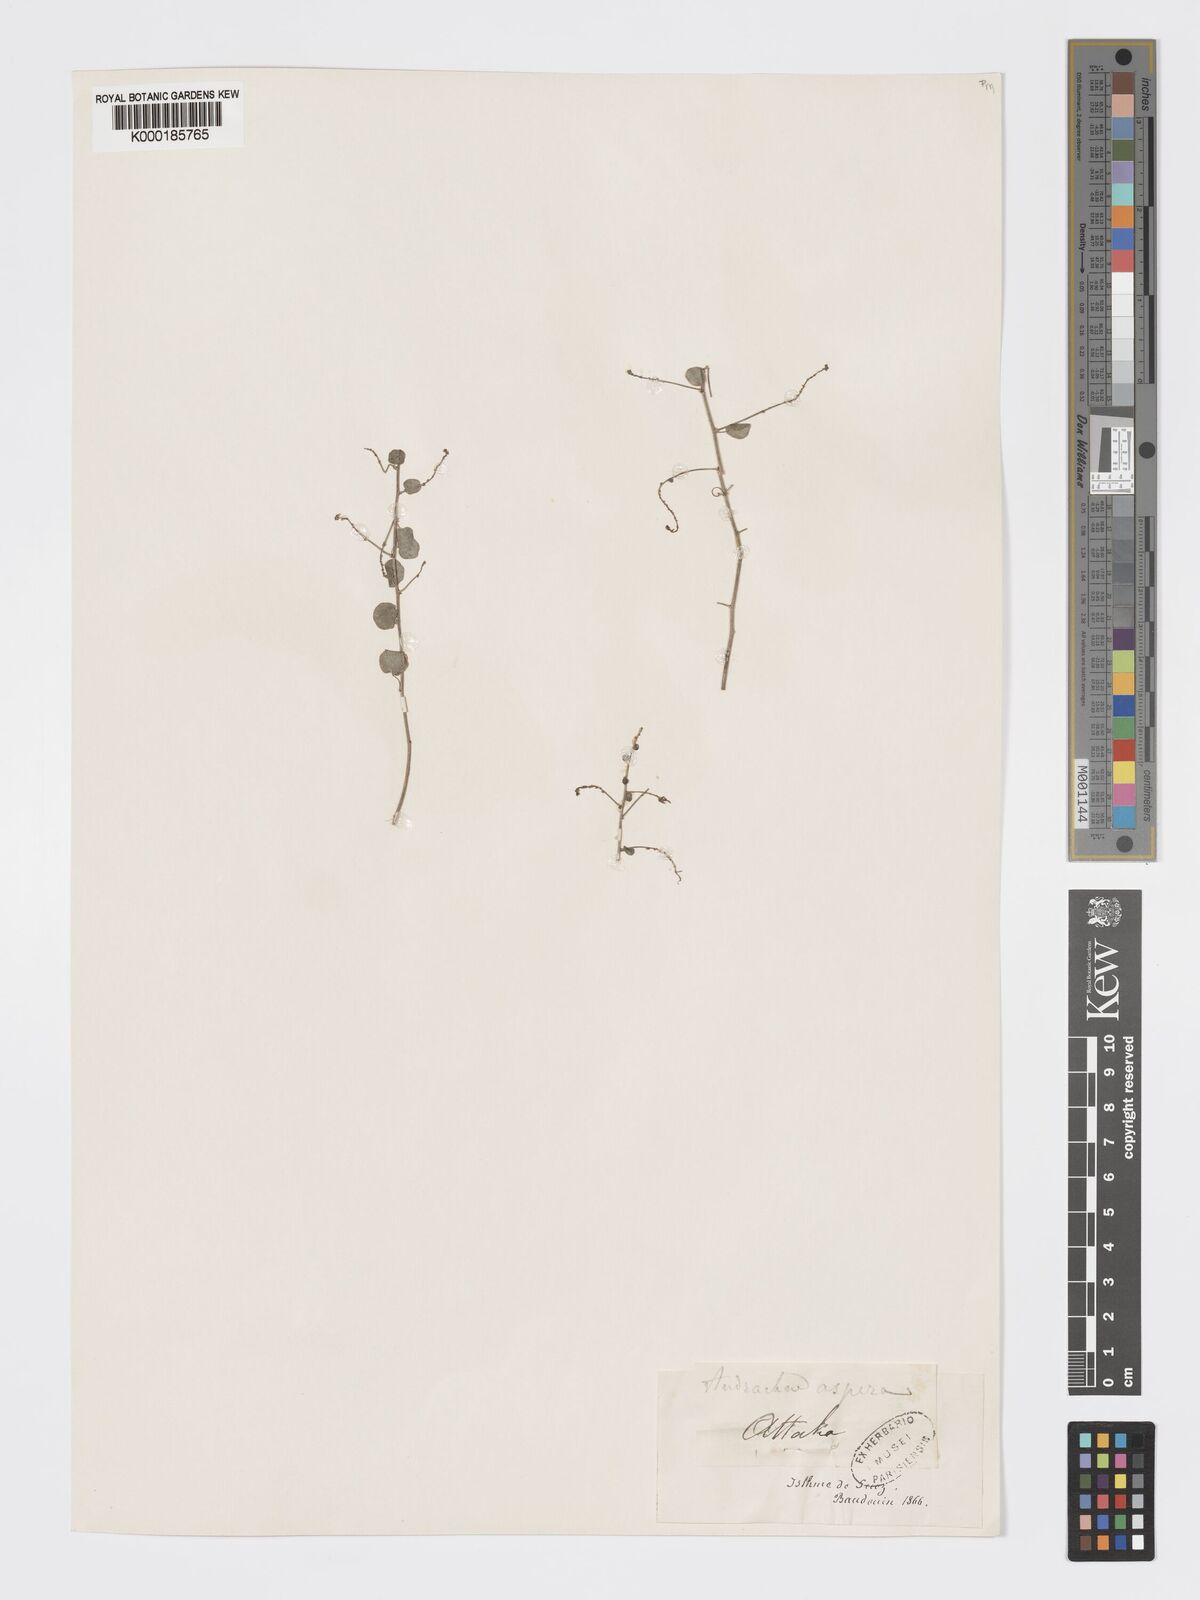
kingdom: Plantae
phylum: Tracheophyta
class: Magnoliopsida
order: Malpighiales
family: Phyllanthaceae
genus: Andrachne
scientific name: Andrachne aspera
